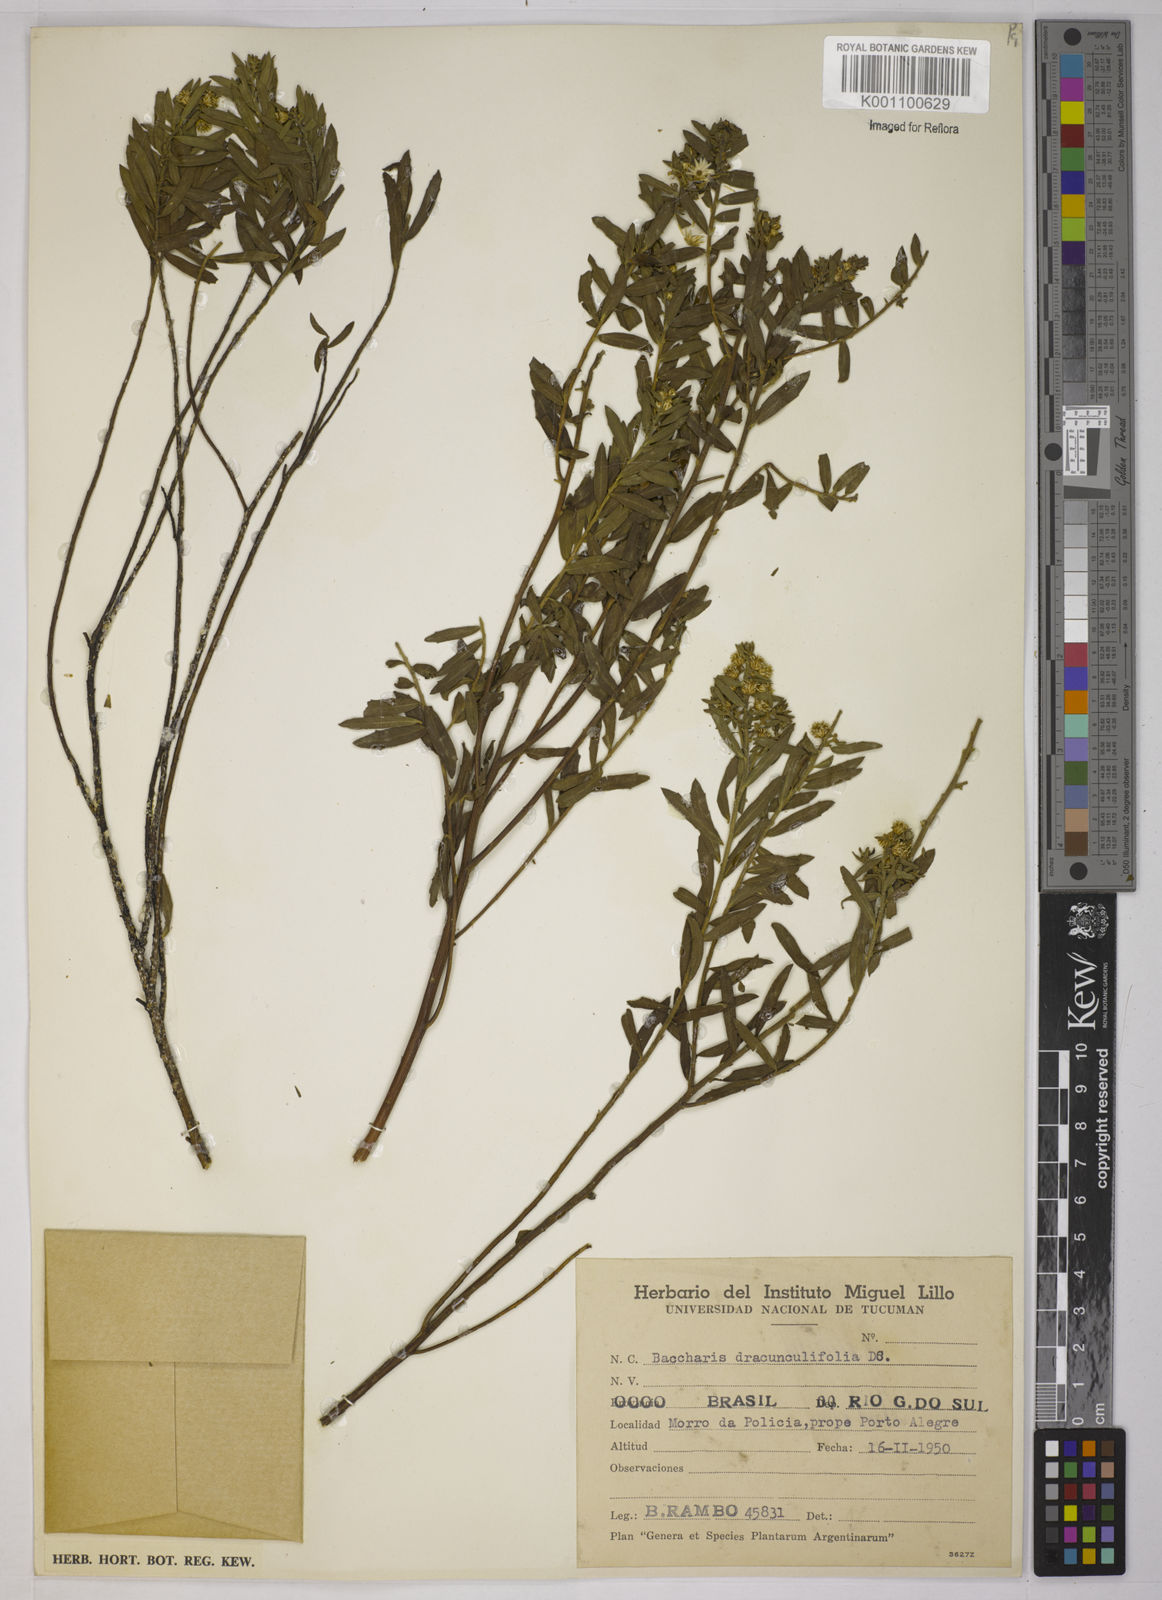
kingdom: Plantae
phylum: Tracheophyta
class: Magnoliopsida
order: Asterales
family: Asteraceae
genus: Baccharis
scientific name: Baccharis dracunculifolia
